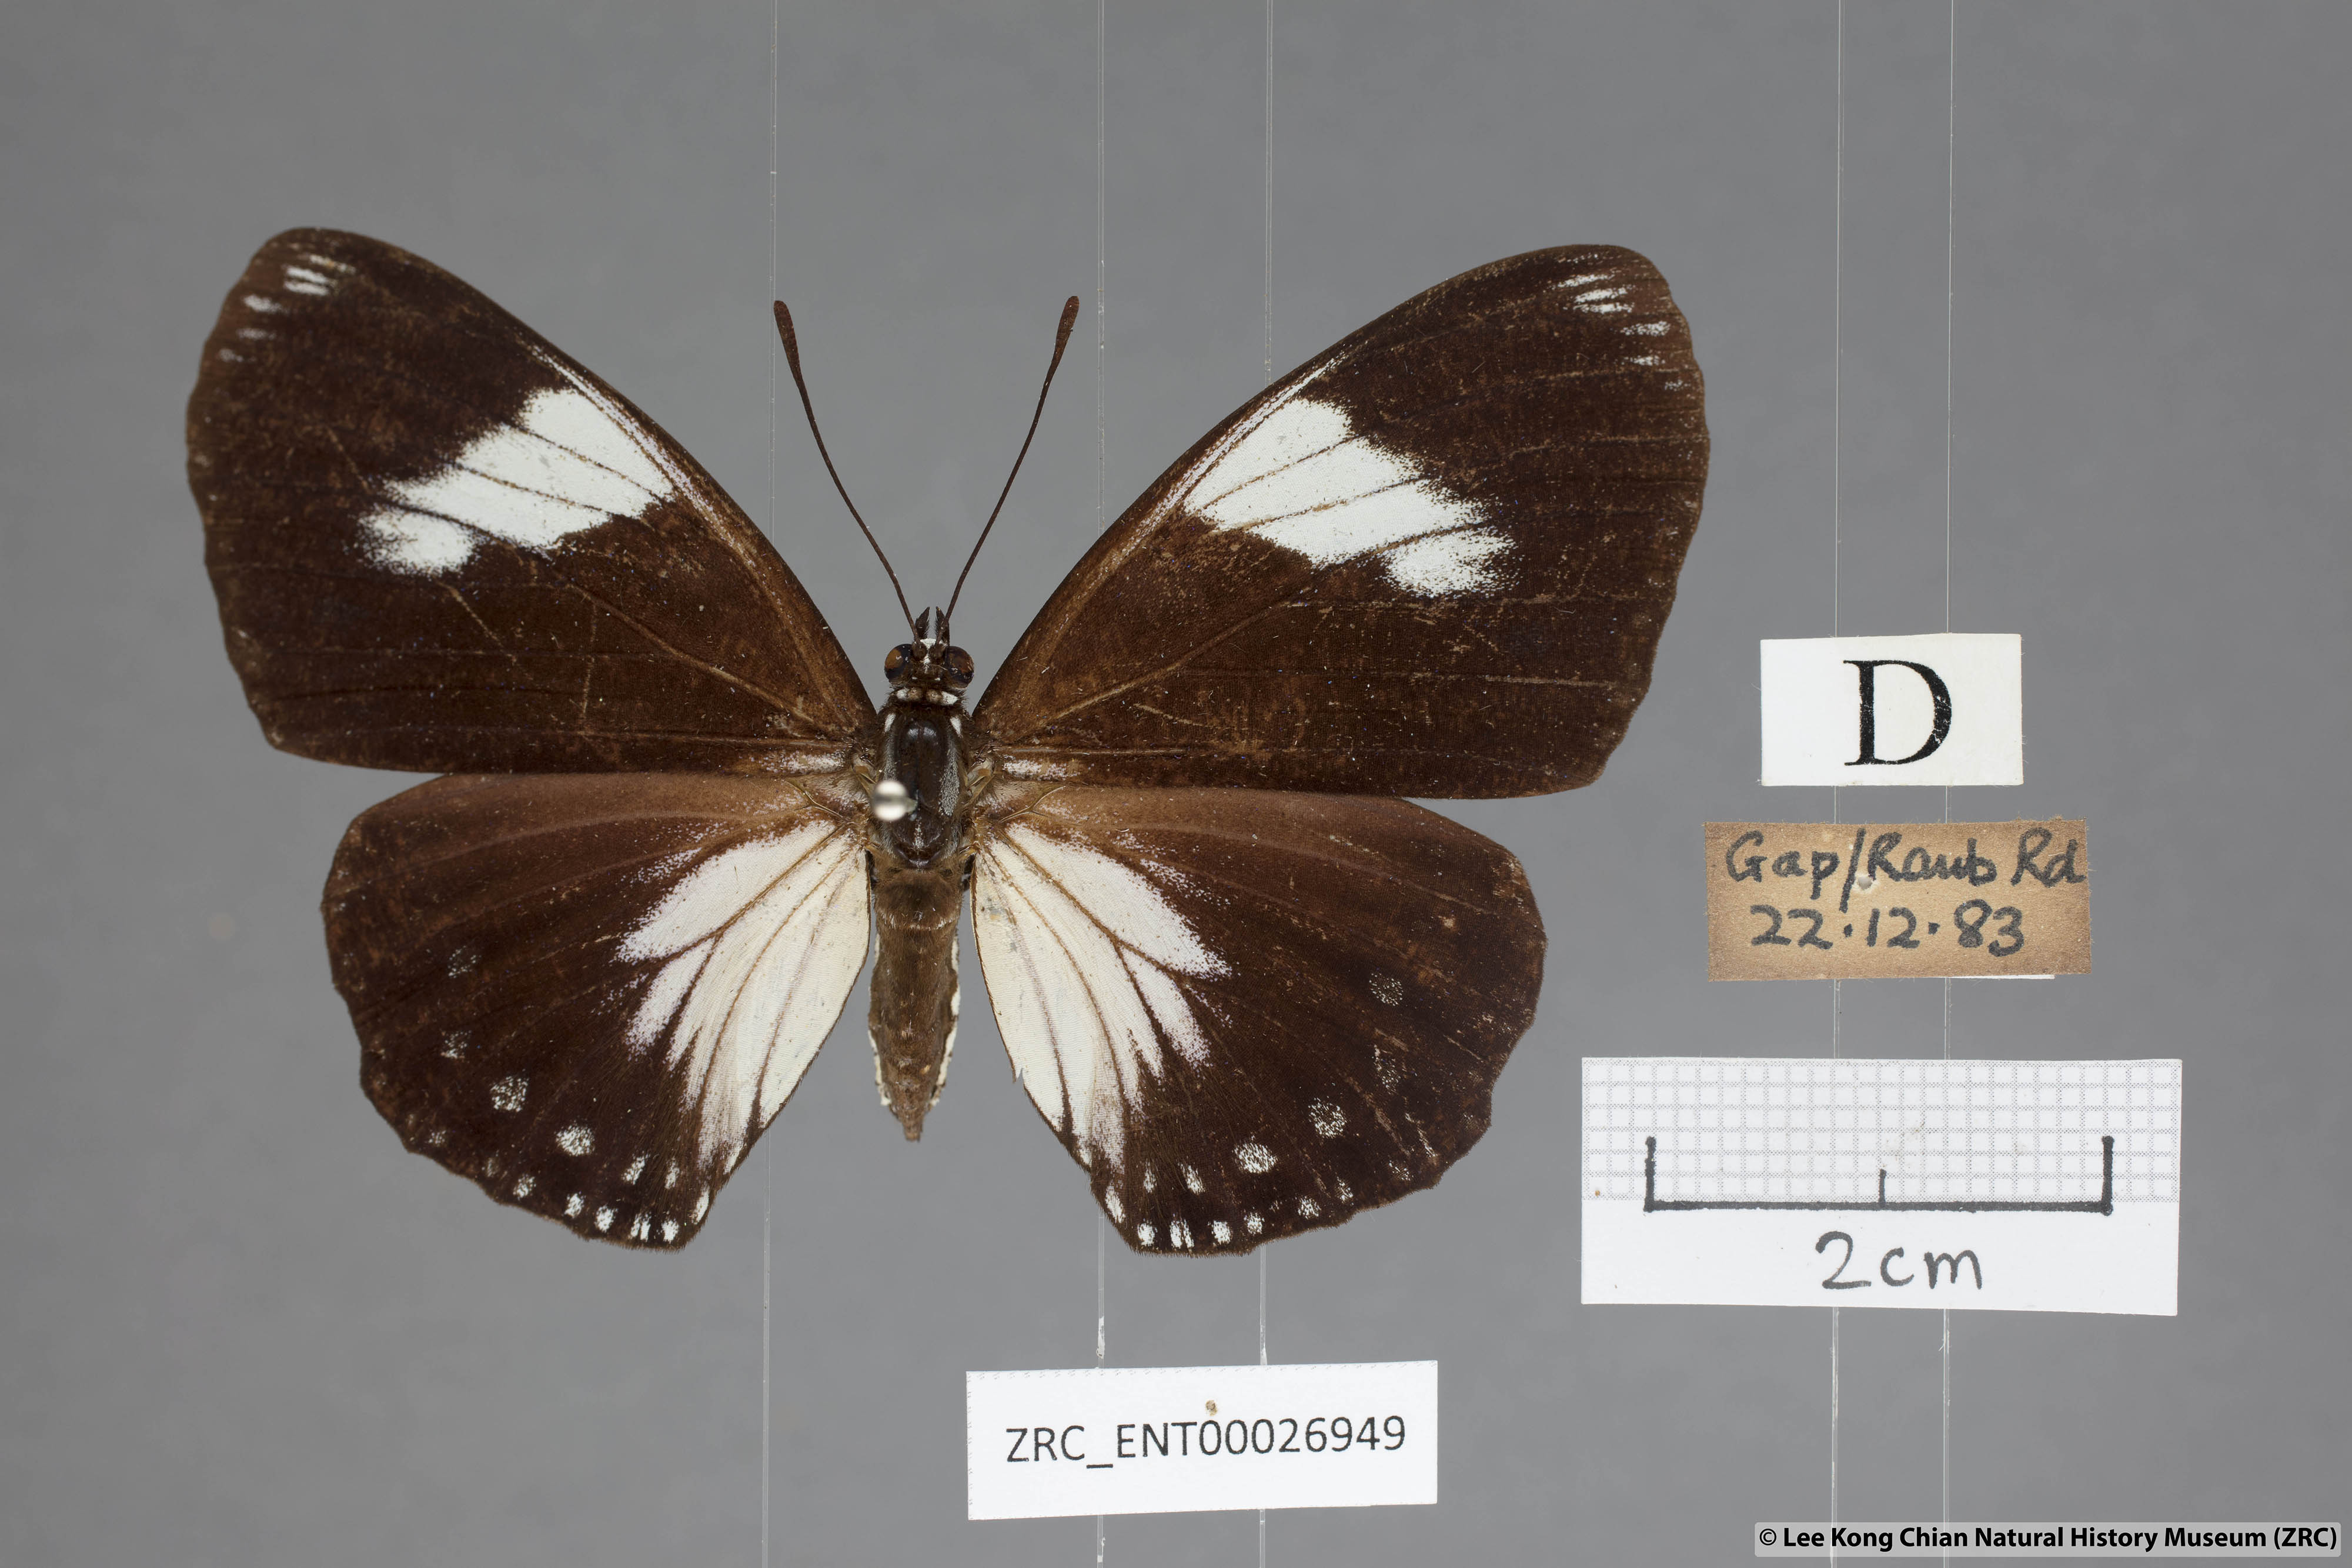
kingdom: Animalia
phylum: Arthropoda
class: Insecta
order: Lepidoptera
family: Nymphalidae
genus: Euripus
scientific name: Euripus nyctelius
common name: Courtesan
